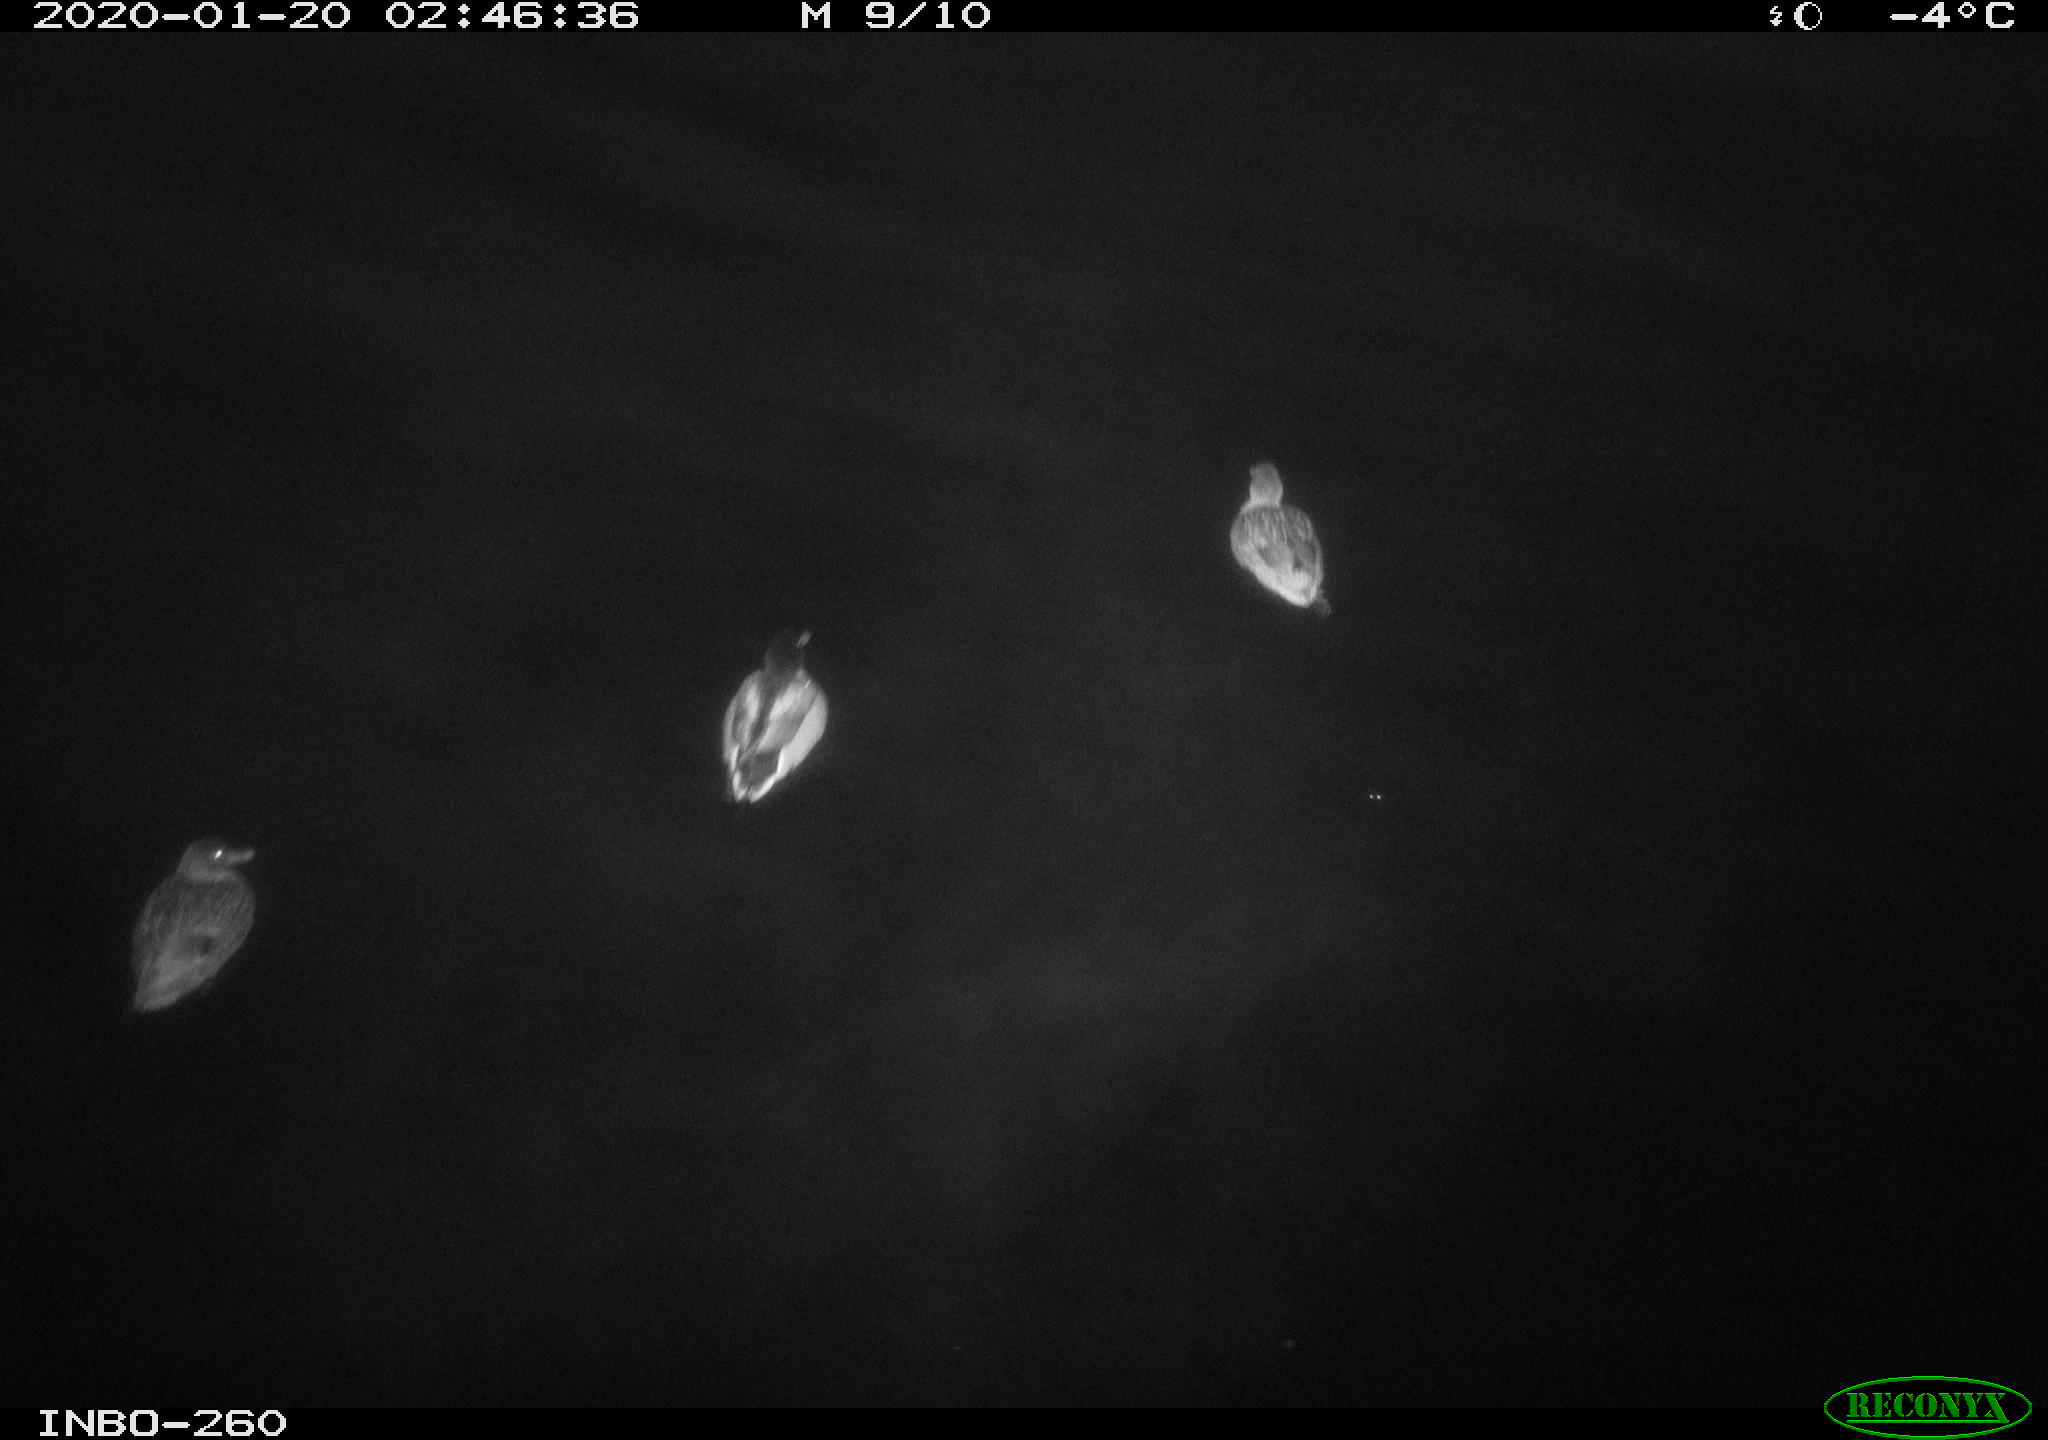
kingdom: Animalia
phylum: Chordata
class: Aves
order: Anseriformes
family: Anatidae
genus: Anas
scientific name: Anas platyrhynchos
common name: Mallard
